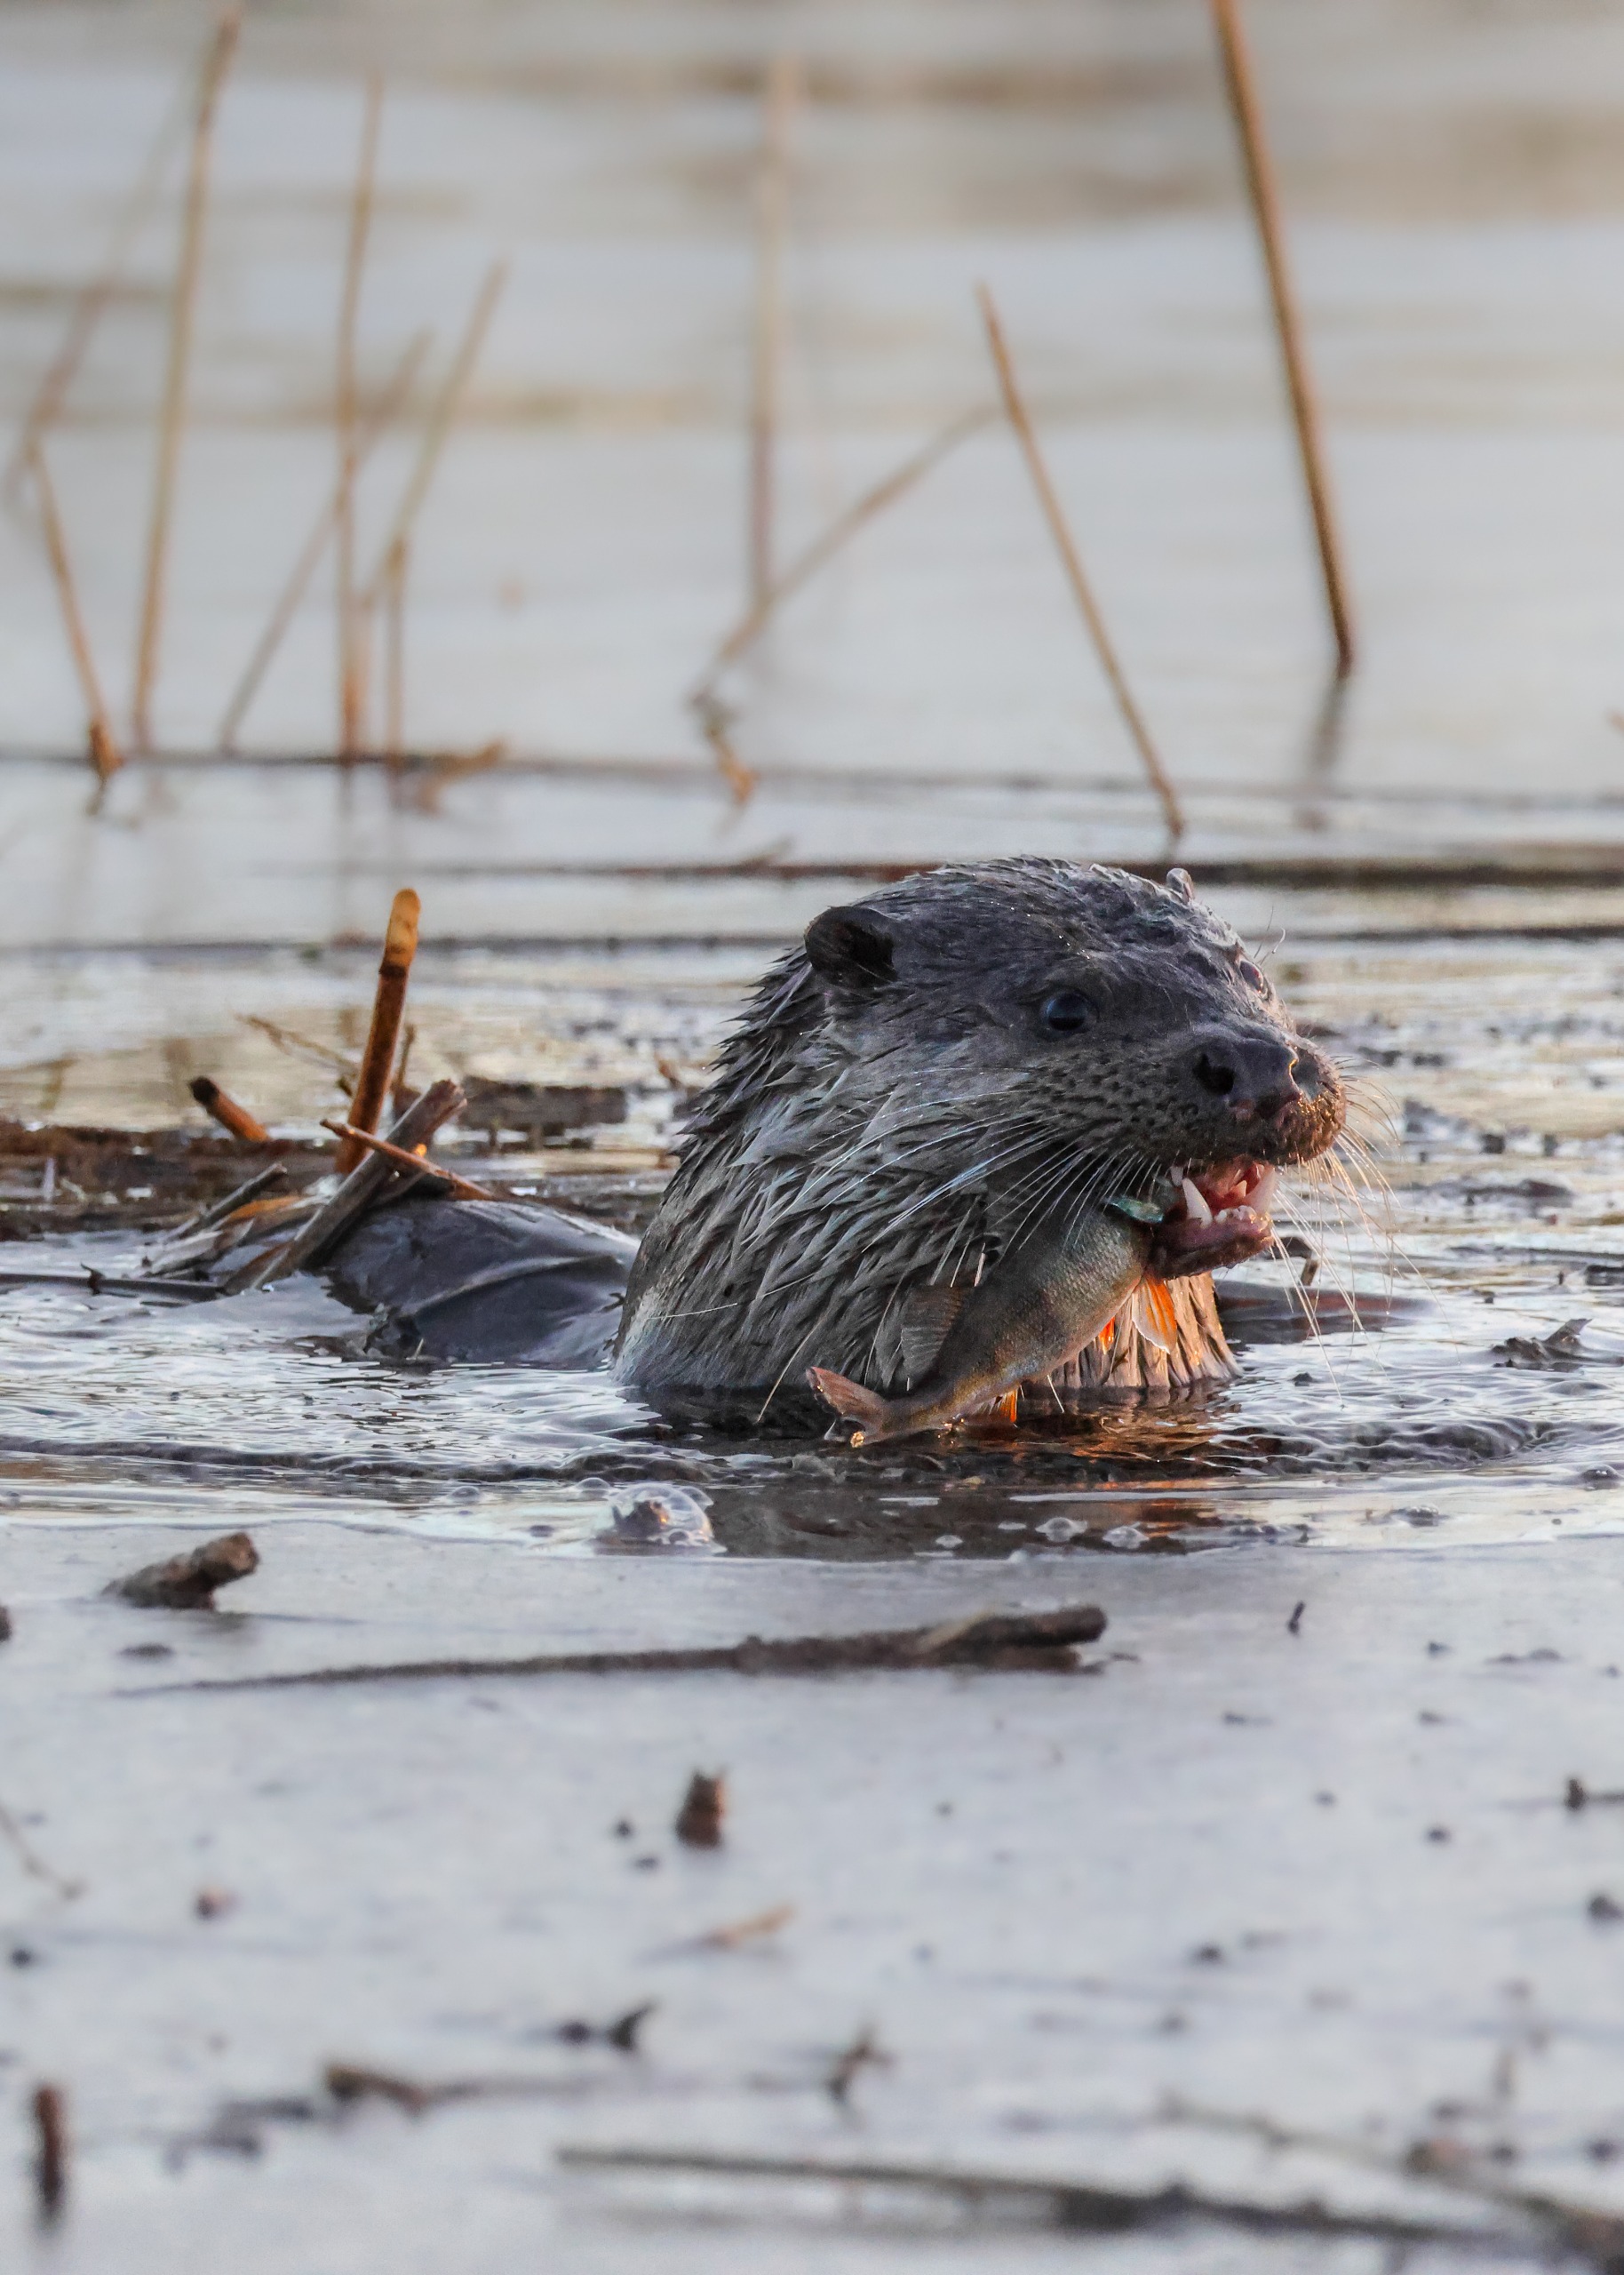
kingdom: Animalia
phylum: Chordata
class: Mammalia
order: Carnivora
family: Mustelidae
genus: Lutra
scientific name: Lutra lutra
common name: Odder
